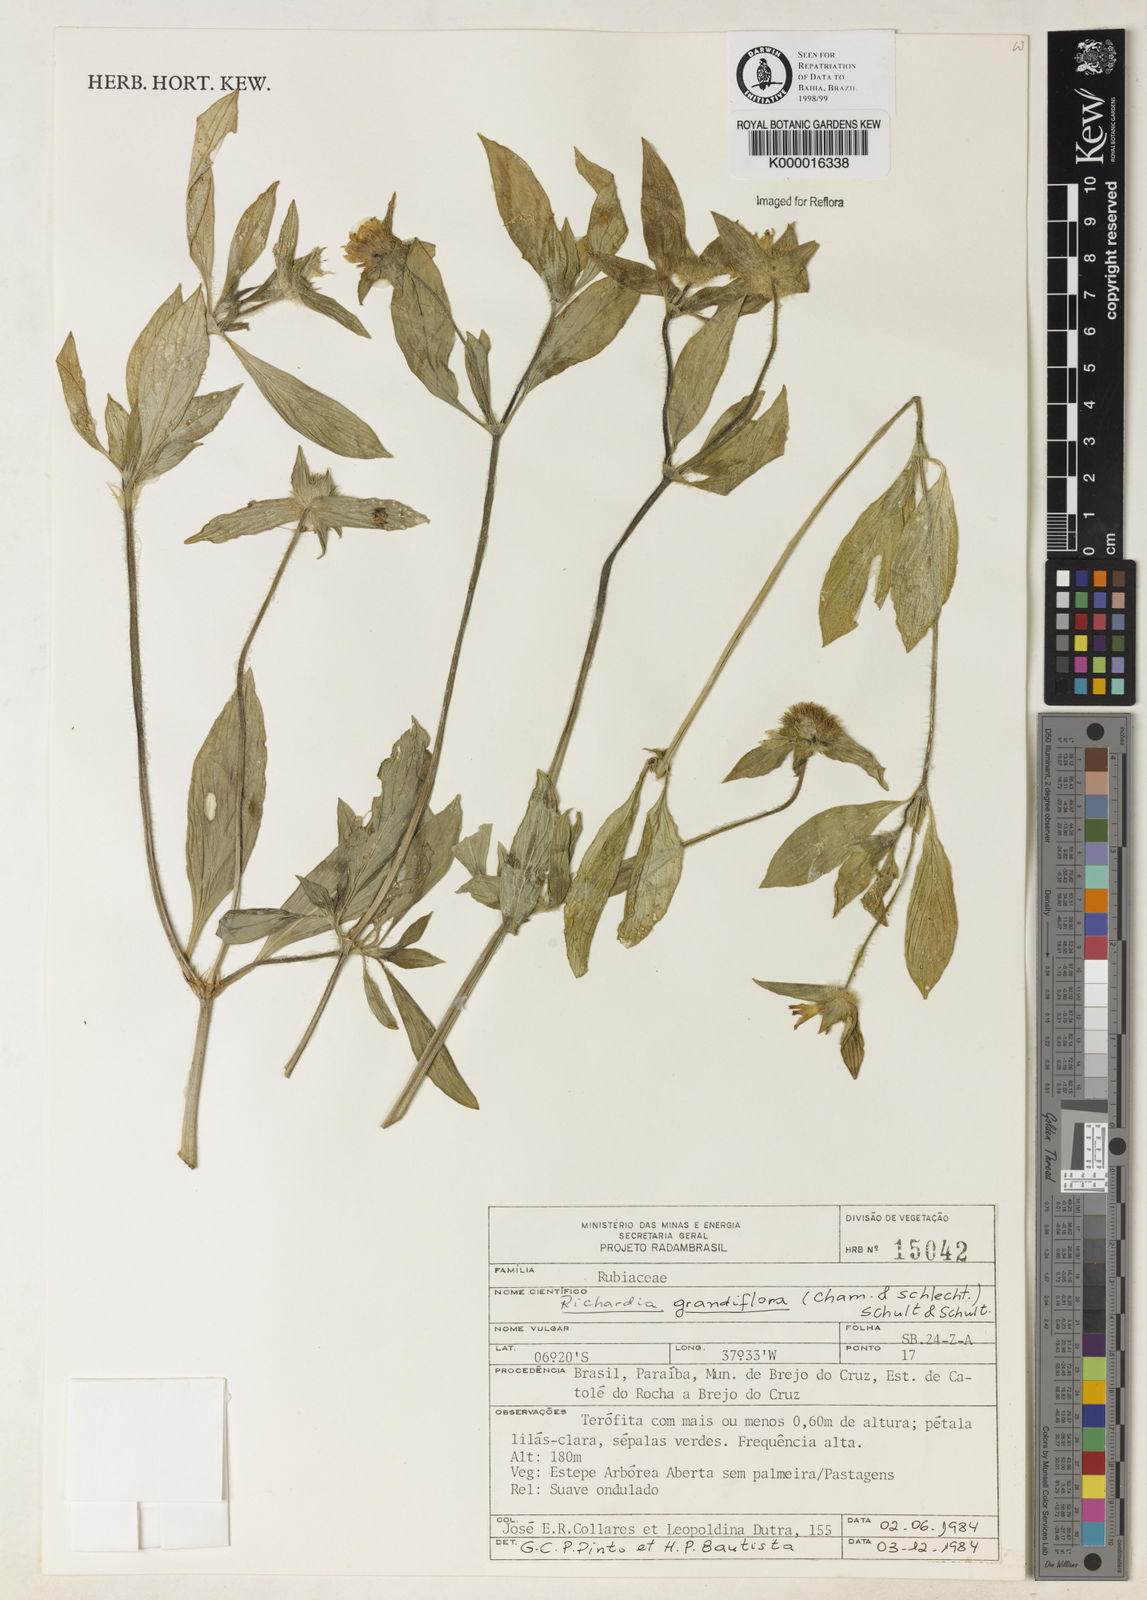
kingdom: Plantae
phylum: Tracheophyta
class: Magnoliopsida
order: Gentianales
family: Rubiaceae
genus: Richardia
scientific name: Richardia grandiflora
